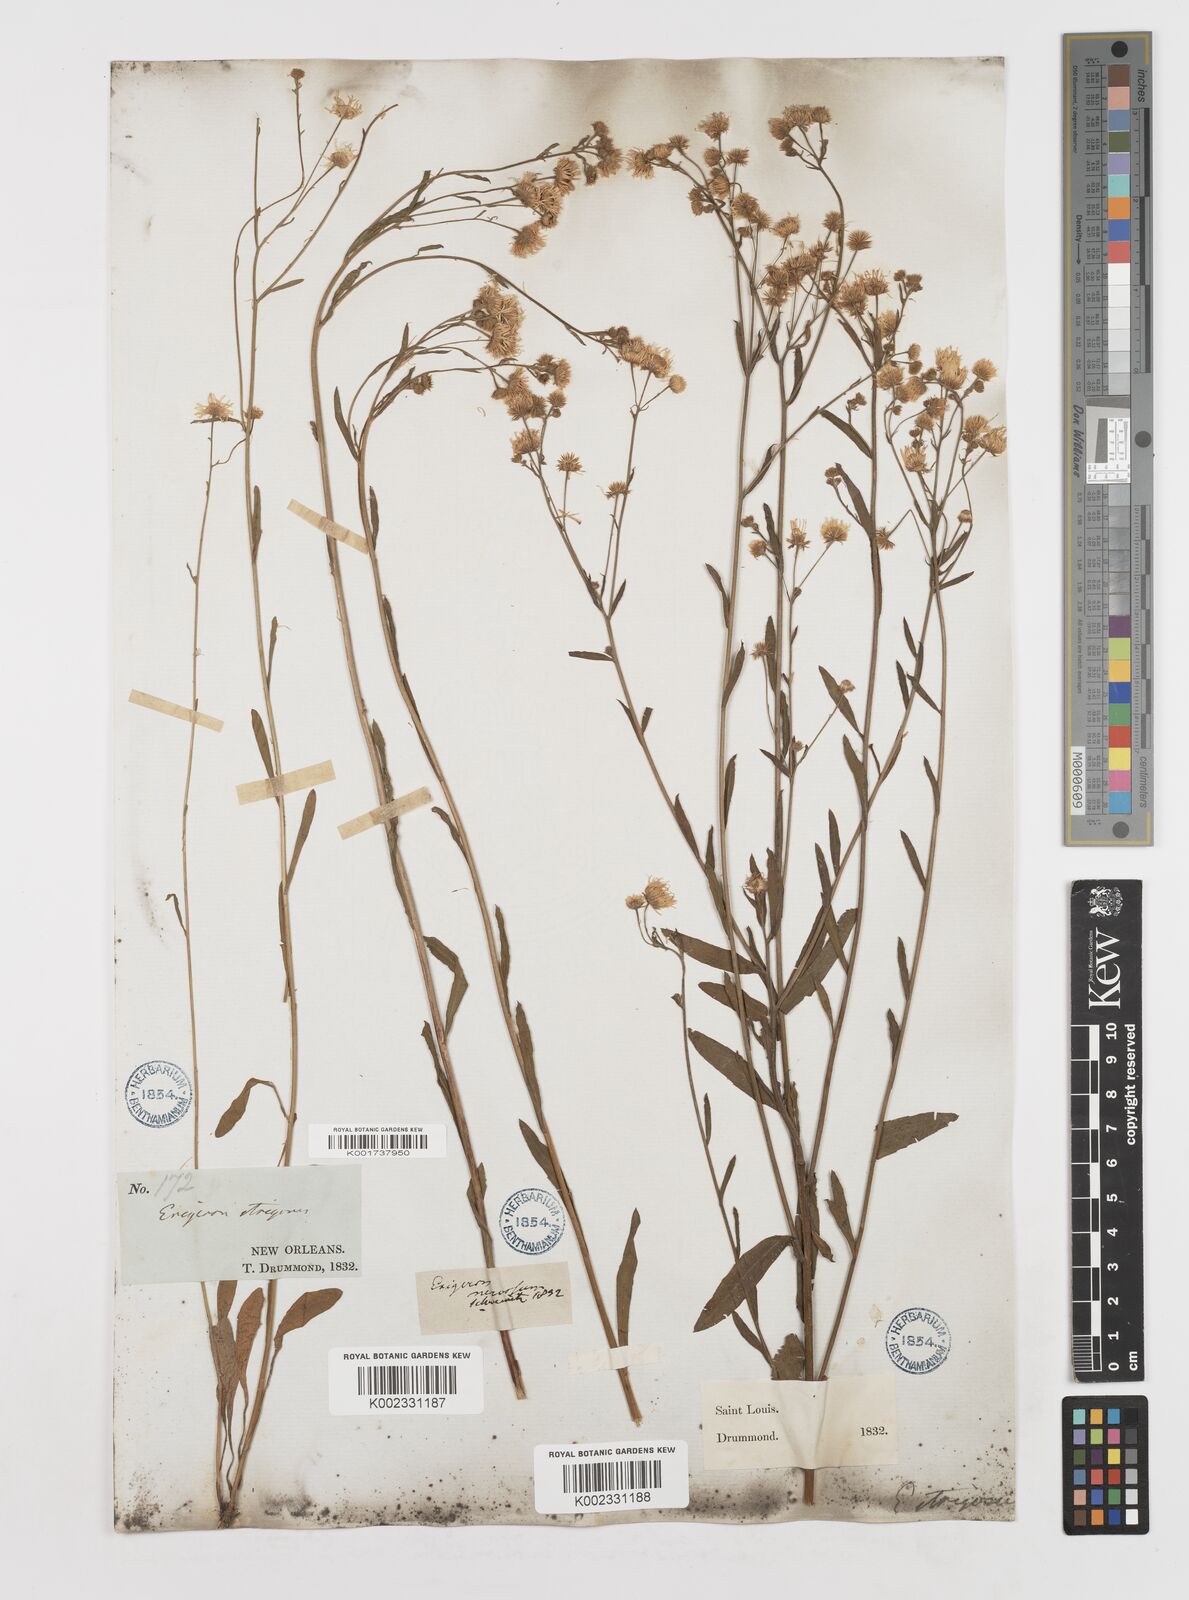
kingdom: Plantae
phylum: Tracheophyta
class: Magnoliopsida
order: Asterales
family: Asteraceae
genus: Erigeron
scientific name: Erigeron
